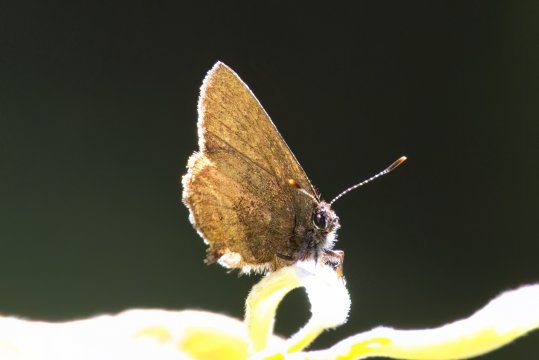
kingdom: Animalia
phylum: Arthropoda
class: Insecta
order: Lepidoptera
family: Lycaenidae
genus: Incisalia
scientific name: Incisalia irioides
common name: Brown Elfin
